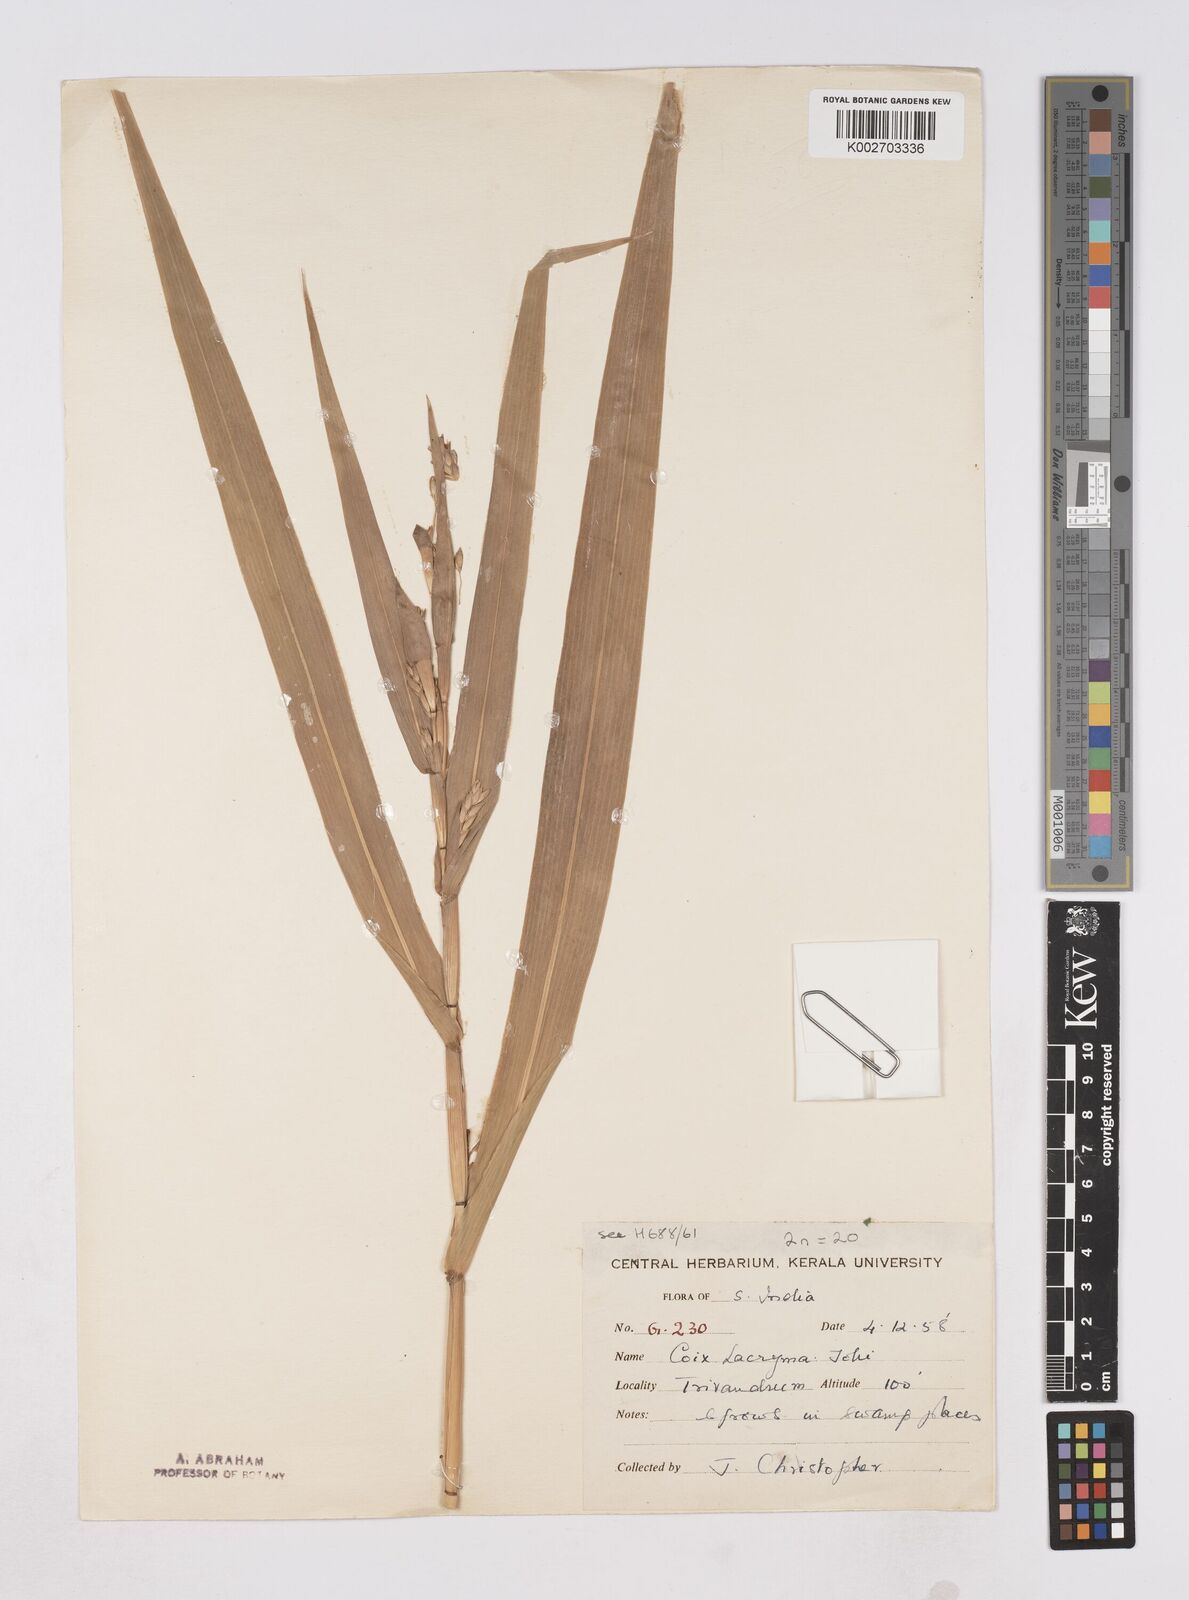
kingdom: Plantae
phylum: Tracheophyta
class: Liliopsida
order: Poales
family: Poaceae
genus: Coix
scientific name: Coix lacryma-jobi
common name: Job's tears
